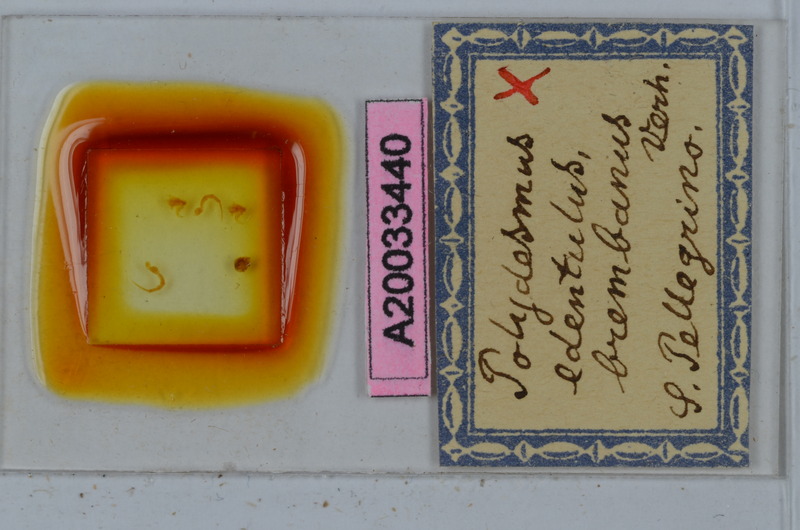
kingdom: Animalia
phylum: Arthropoda
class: Diplopoda
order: Polydesmida
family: Polydesmidae
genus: Polydesmus
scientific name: Polydesmus edentulus
